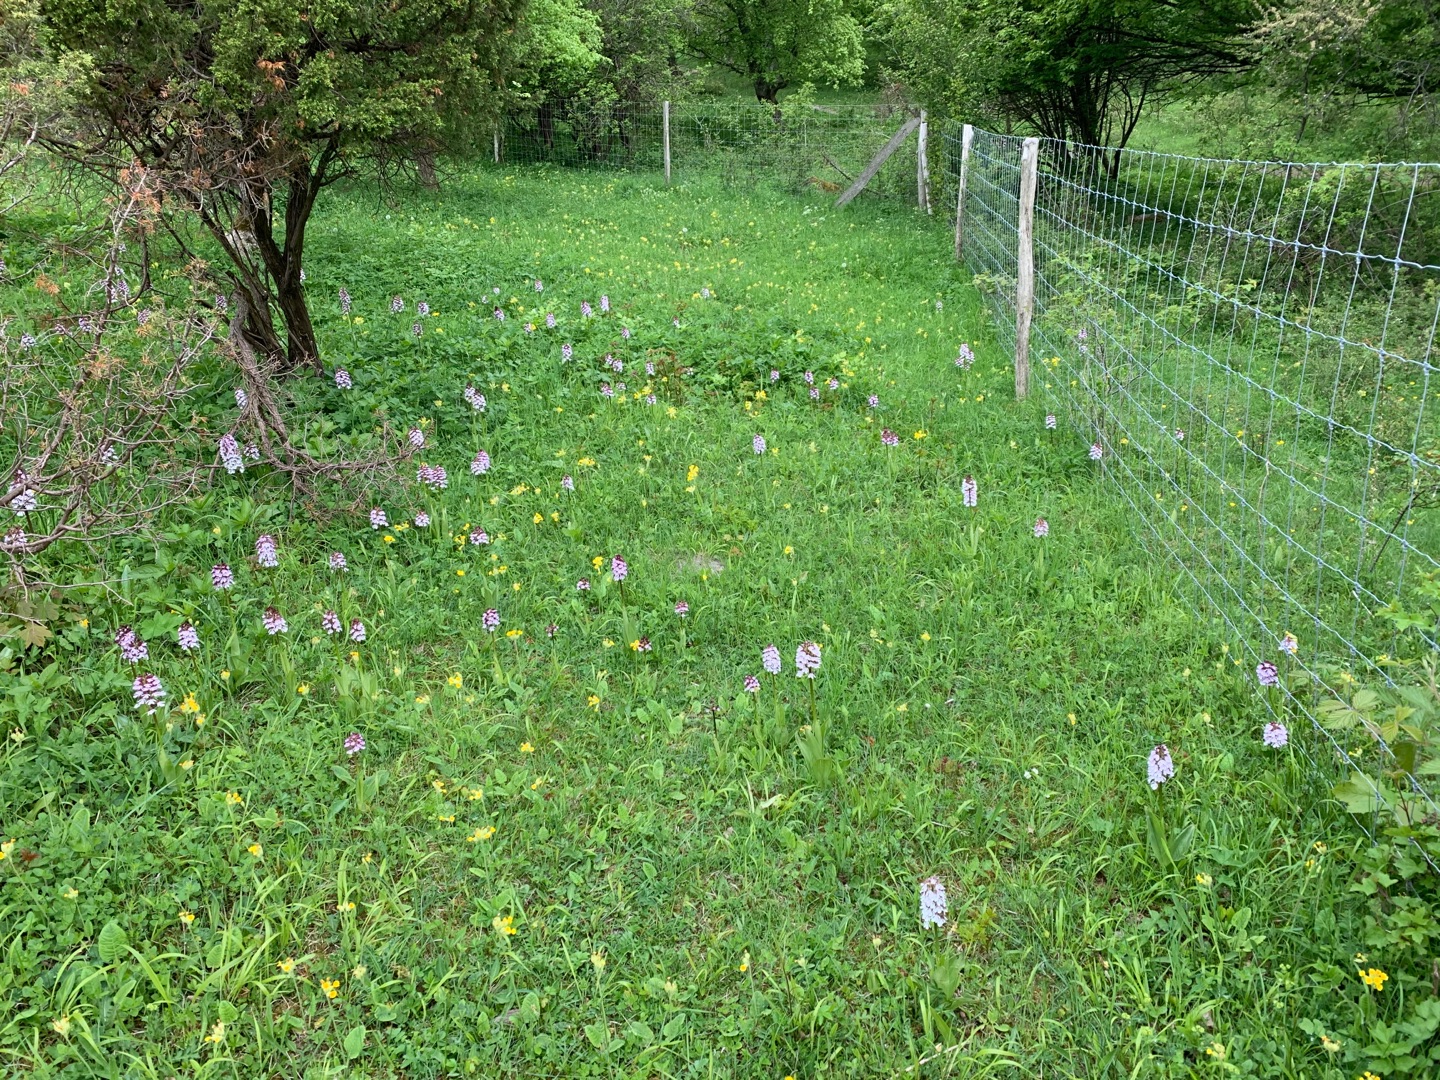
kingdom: Plantae
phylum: Tracheophyta
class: Liliopsida
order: Asparagales
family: Orchidaceae
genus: Orchis
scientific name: Orchis purpurea
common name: Stor gøgeurt
